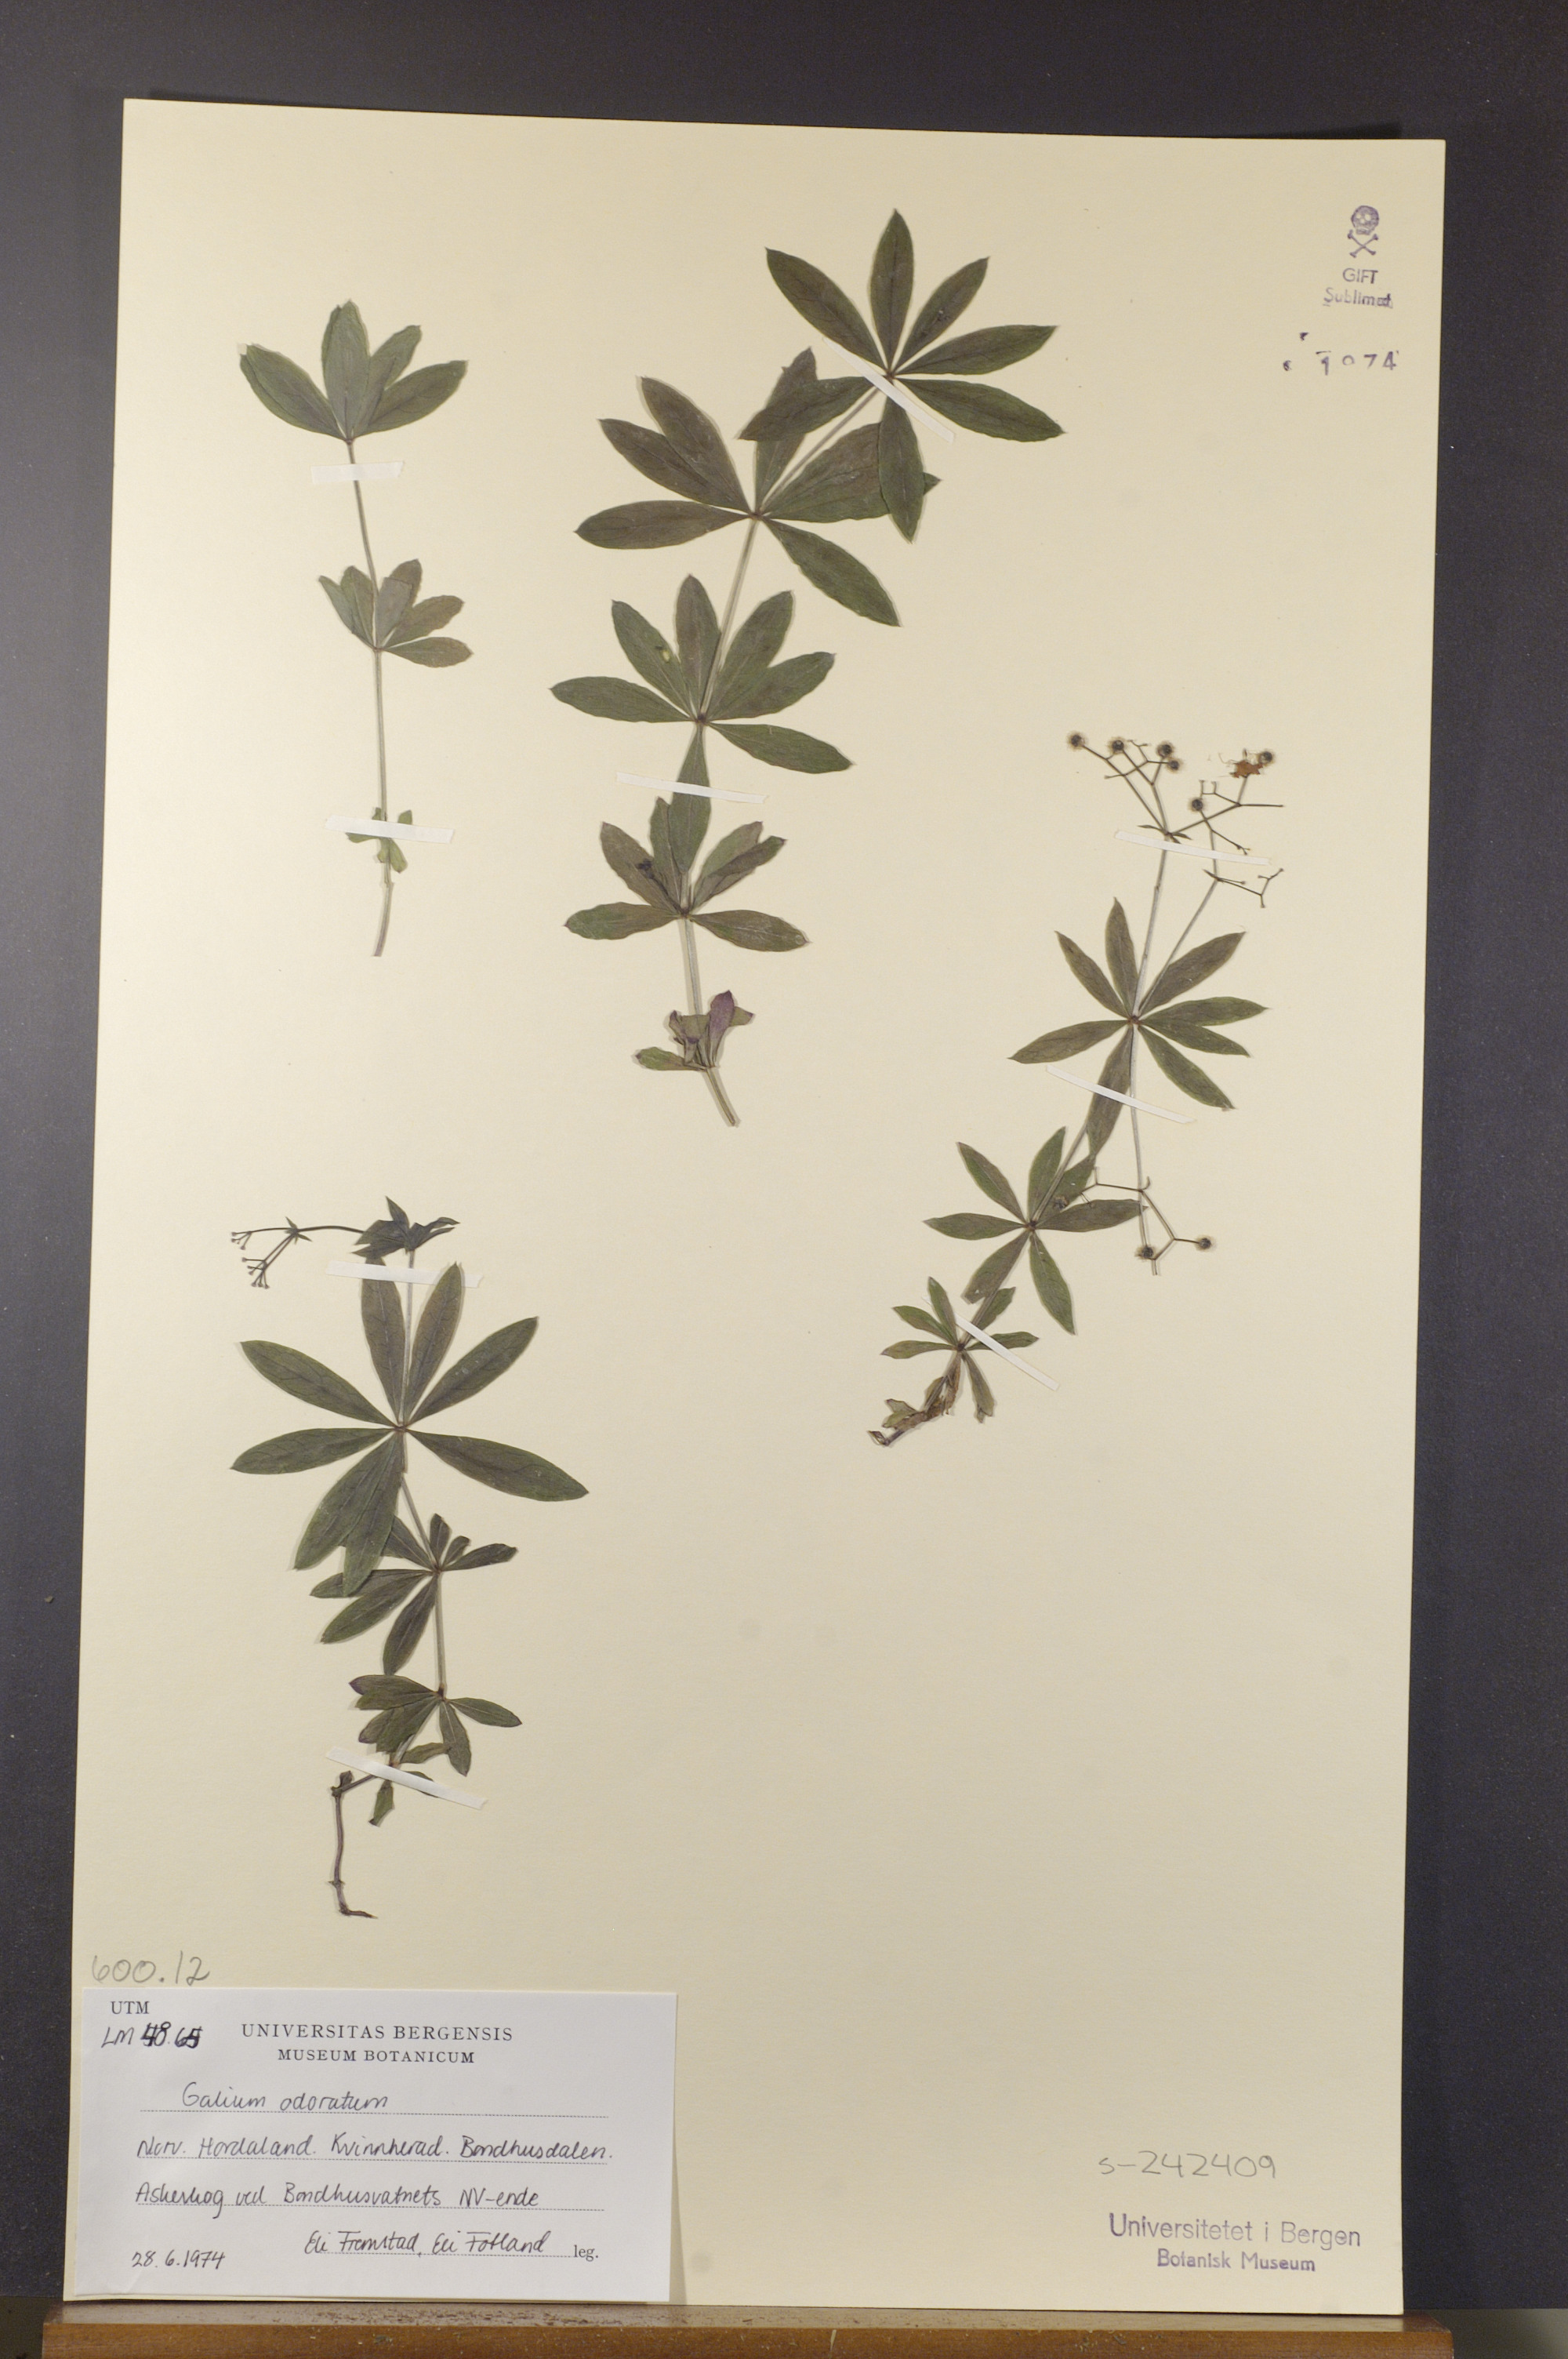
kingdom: Plantae
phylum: Tracheophyta
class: Magnoliopsida
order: Gentianales
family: Rubiaceae
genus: Galium
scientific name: Galium odoratum
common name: Sweet woodruff
